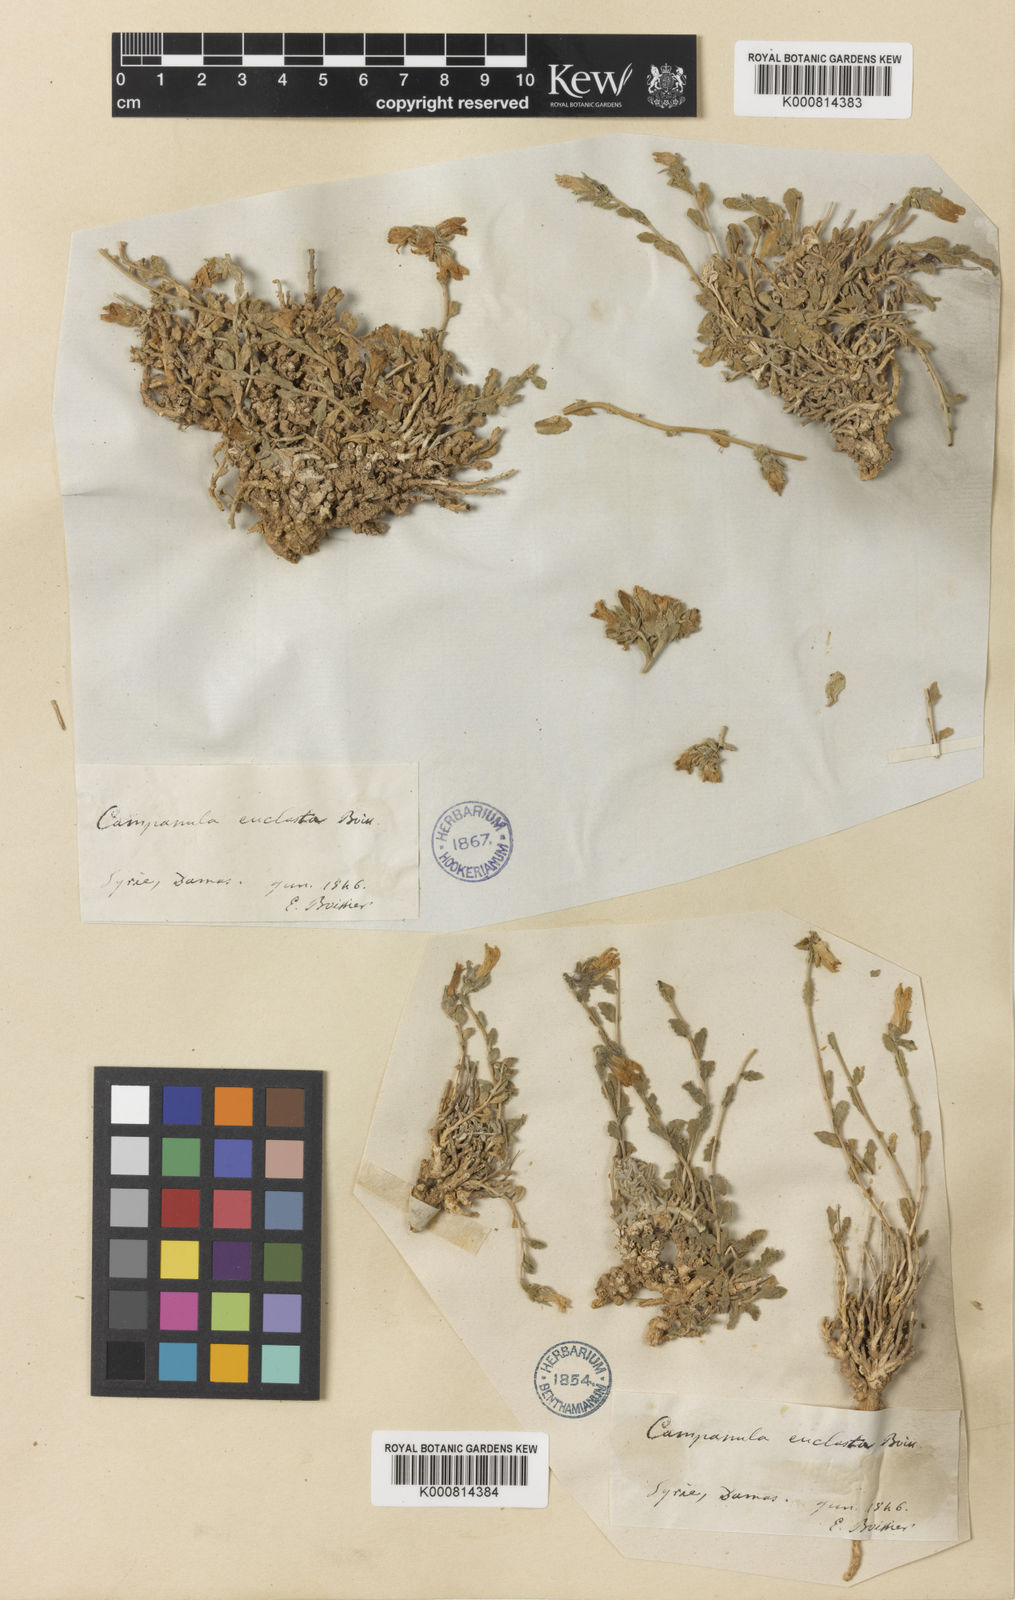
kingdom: Plantae
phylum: Tracheophyta
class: Magnoliopsida
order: Asterales
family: Campanulaceae
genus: Campanula
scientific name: Campanula telephioides
